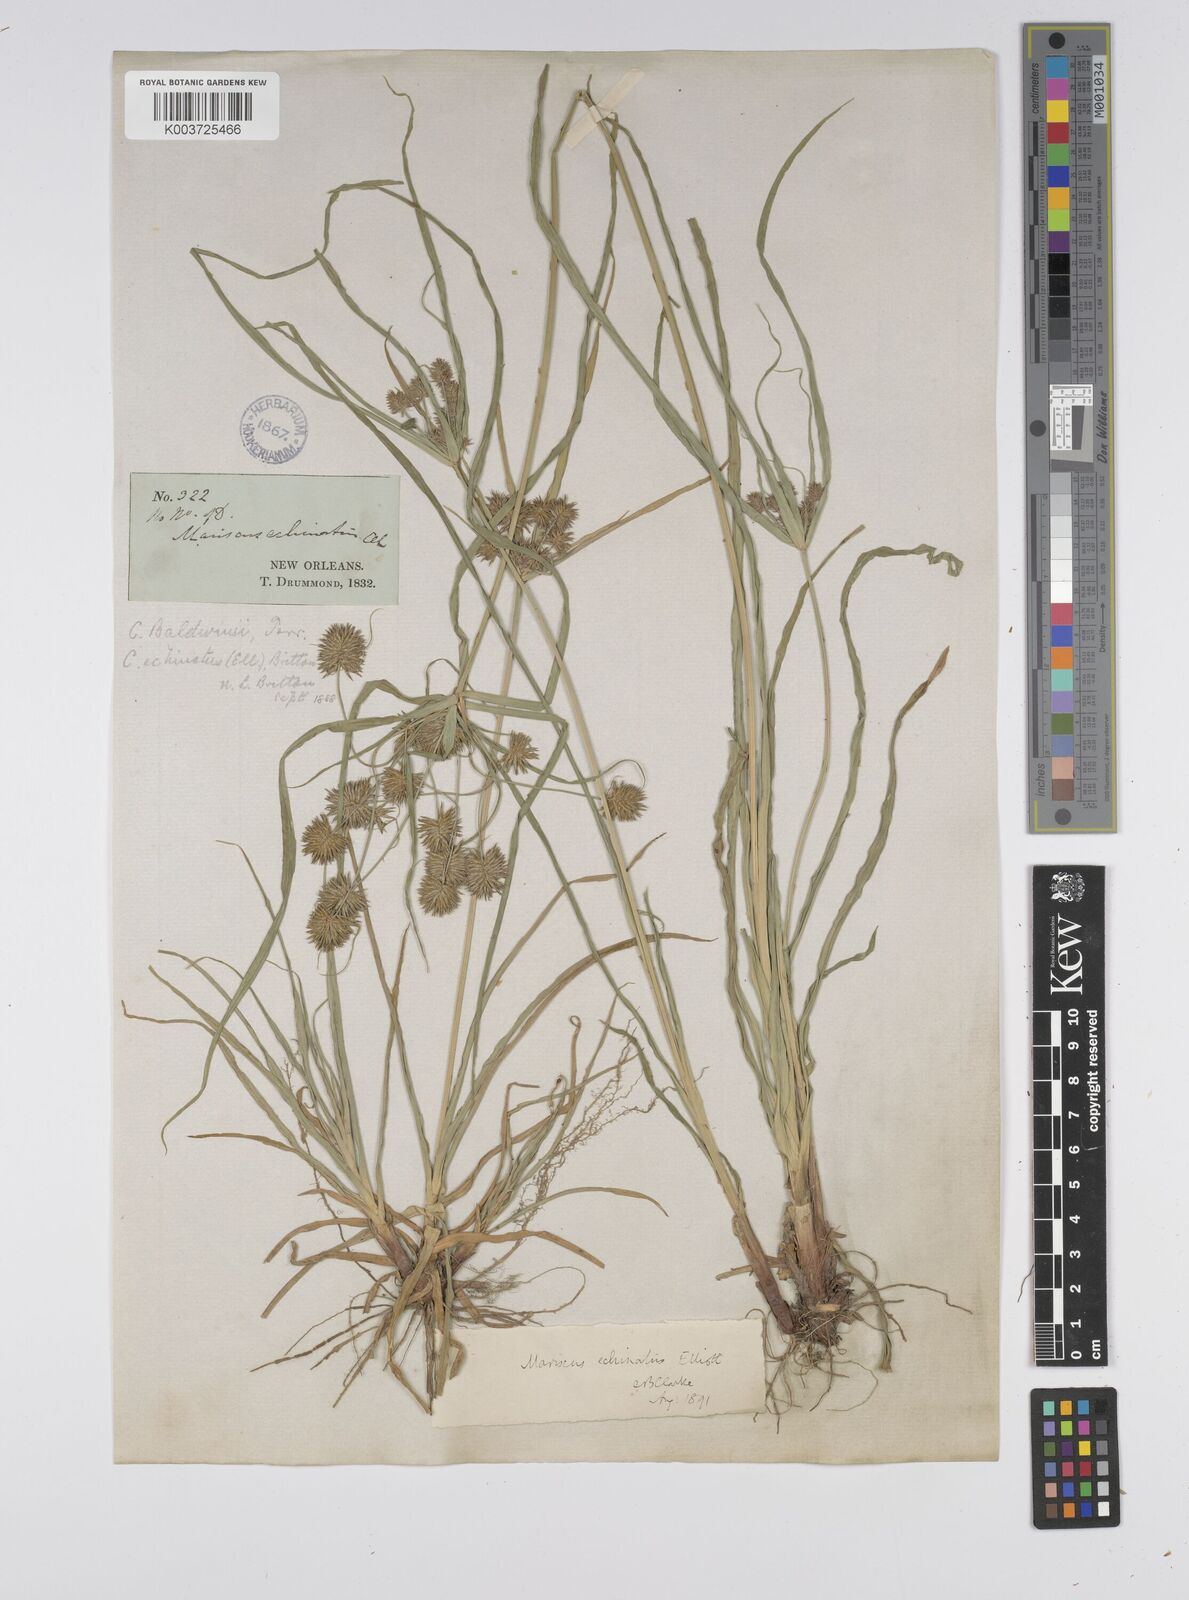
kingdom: Plantae
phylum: Tracheophyta
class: Liliopsida
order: Poales
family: Cyperaceae
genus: Cyperus
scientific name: Cyperus luzulae
